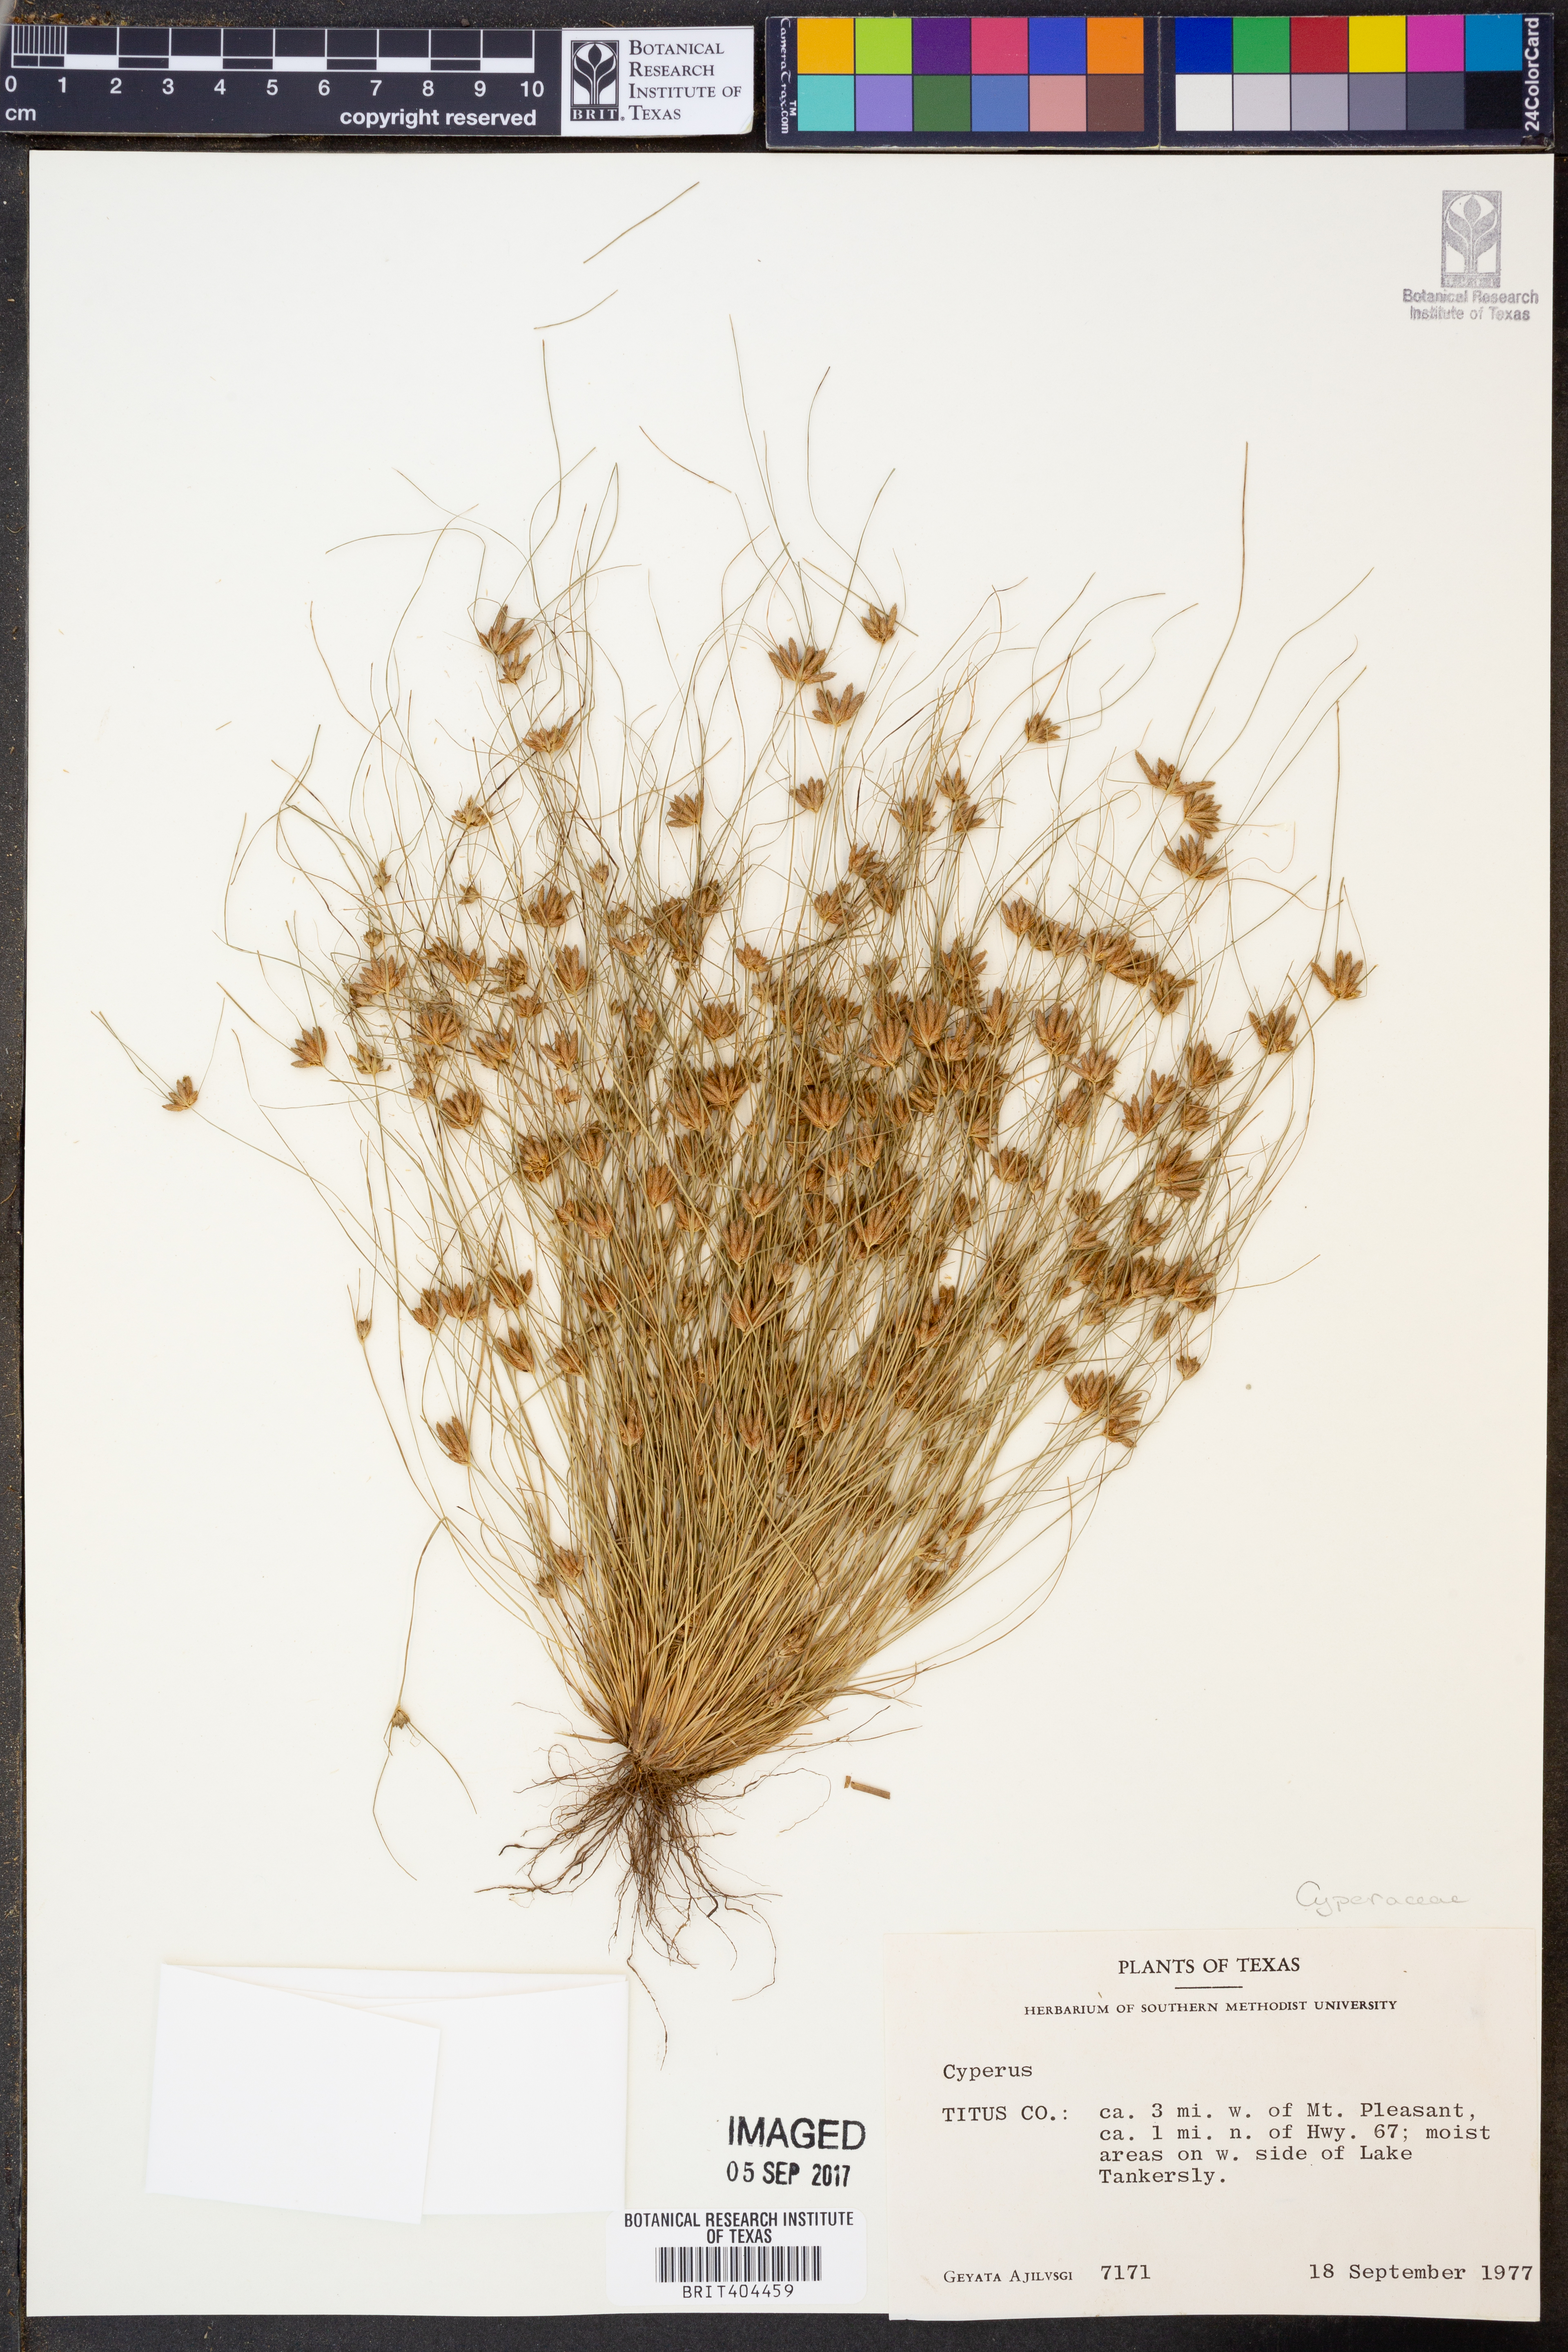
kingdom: Plantae
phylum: Tracheophyta
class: Liliopsida
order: Poales
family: Cyperaceae
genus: Cyperus
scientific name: Cyperus
